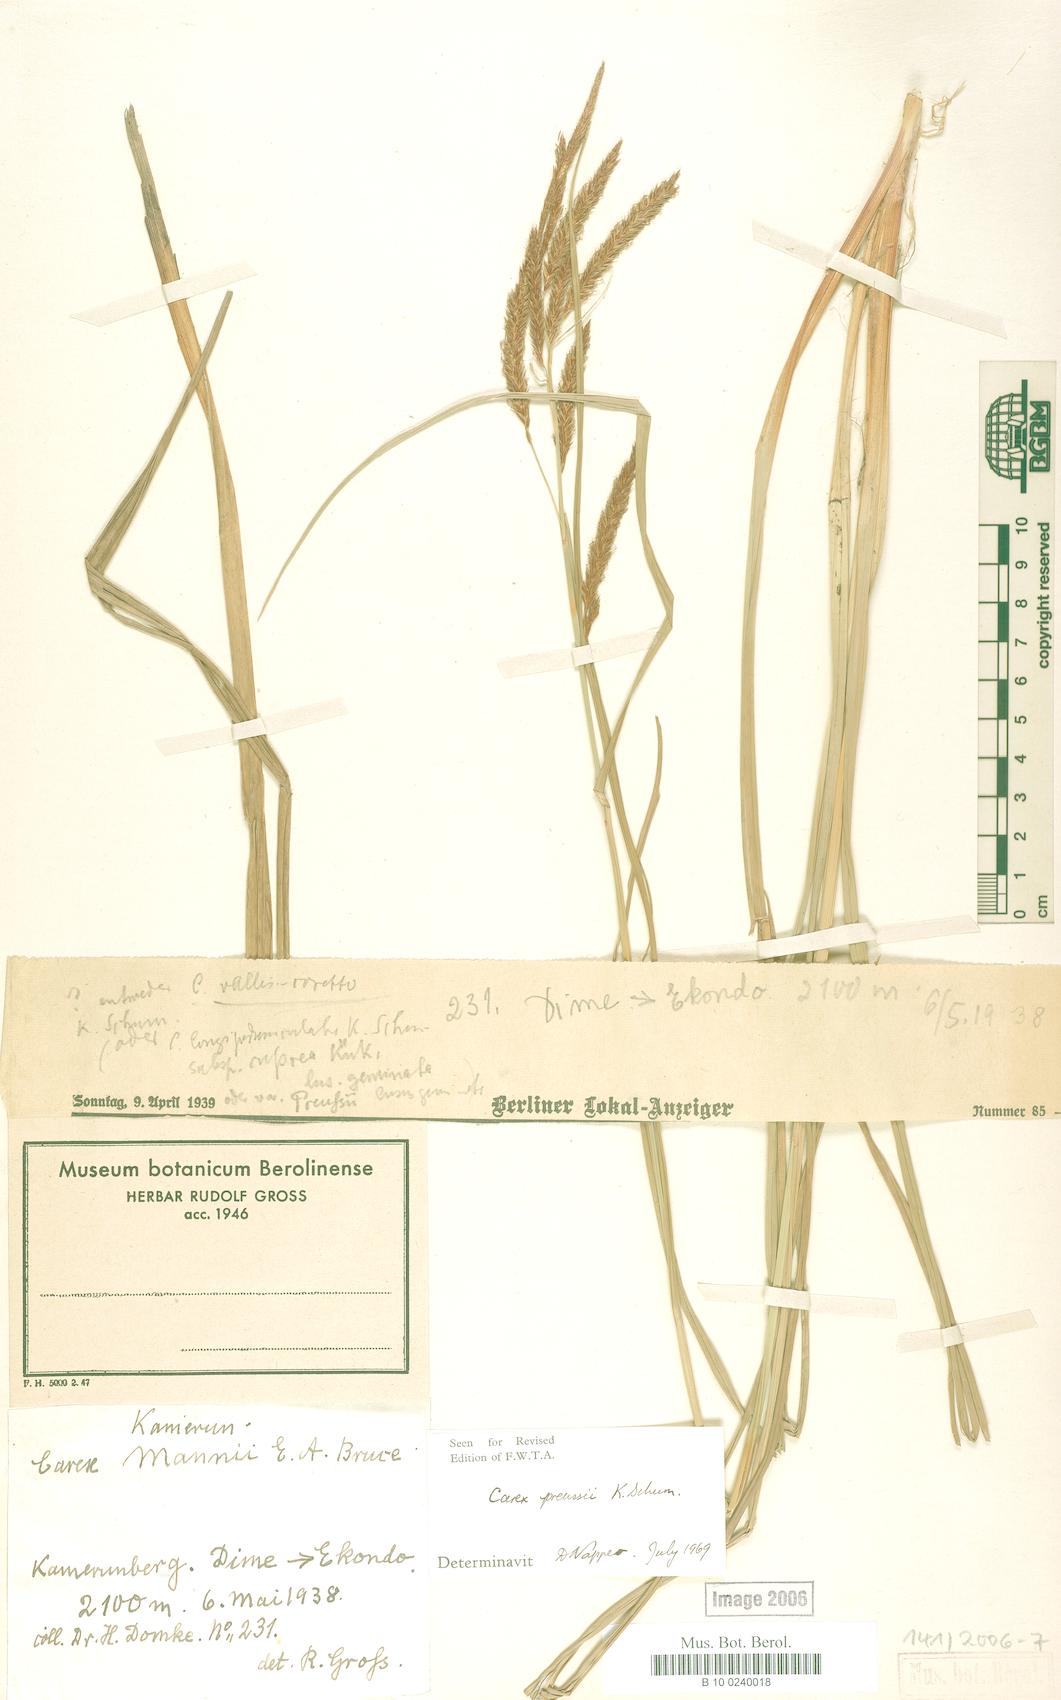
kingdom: Plantae
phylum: Tracheophyta
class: Liliopsida
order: Poales
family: Cyperaceae
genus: Carex
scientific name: Carex mannii
